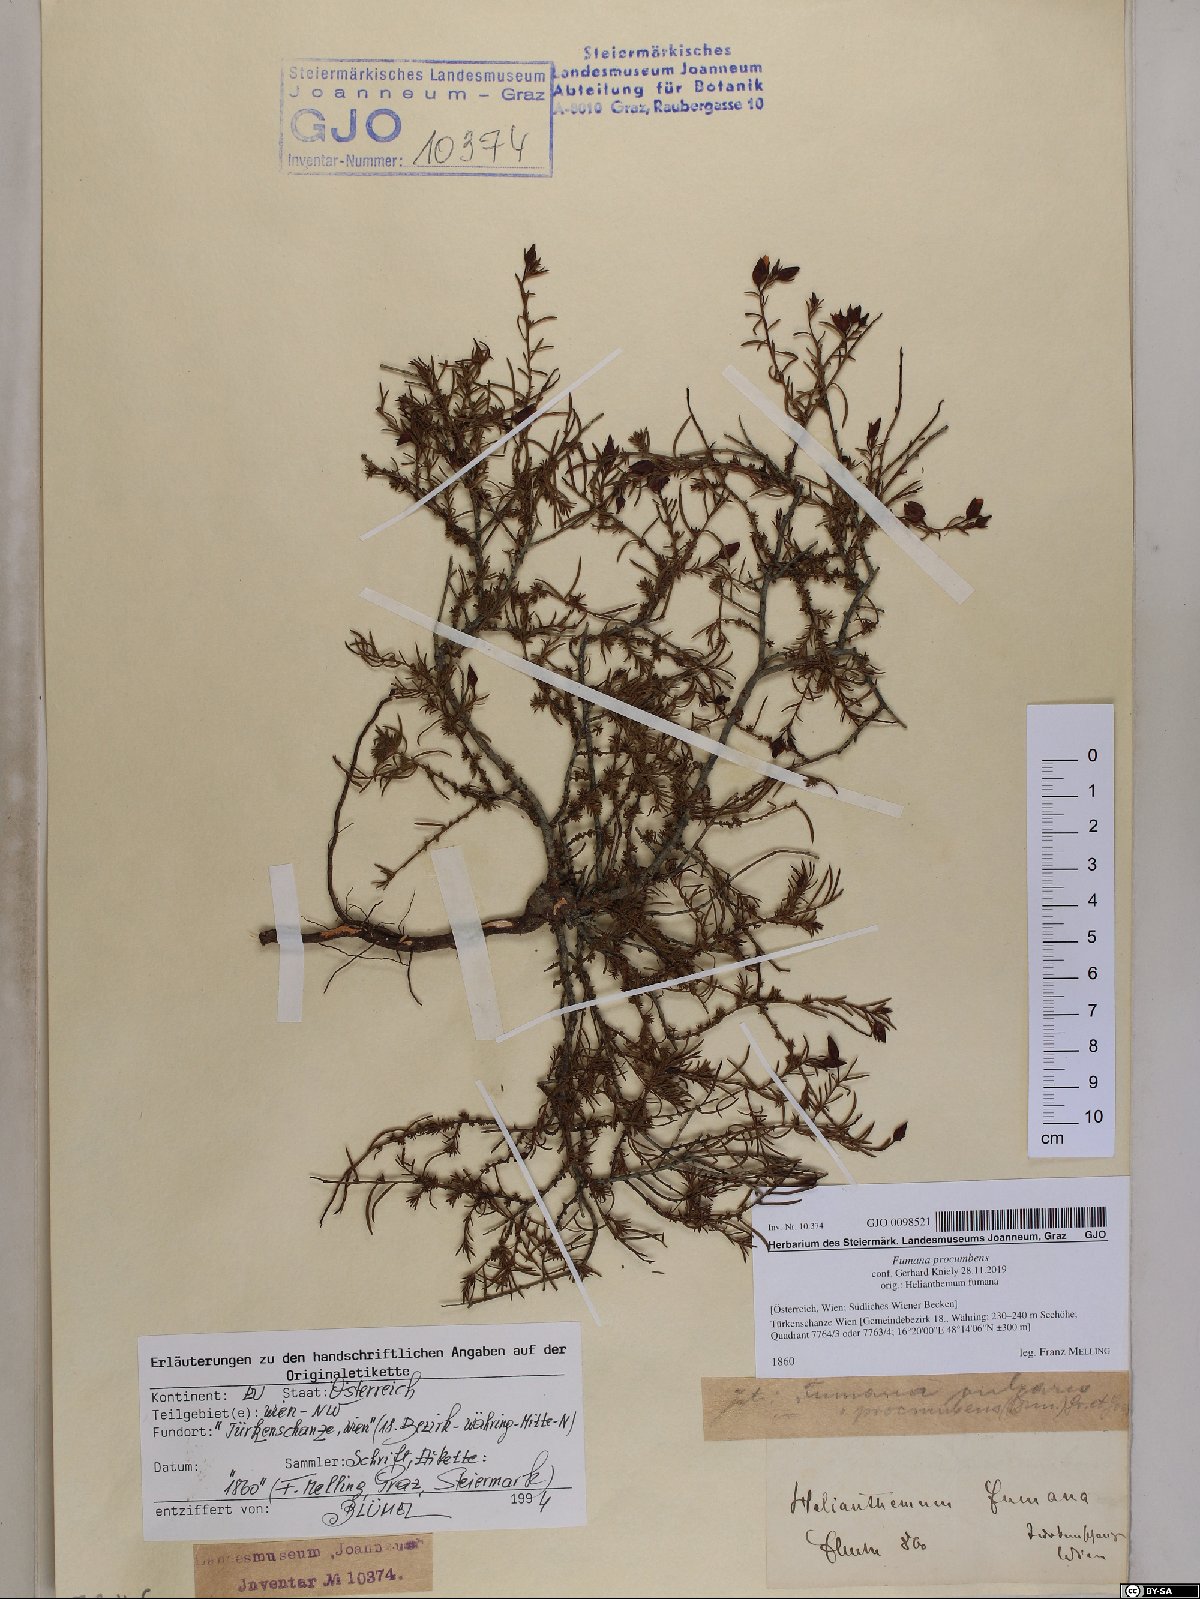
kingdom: Plantae
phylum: Tracheophyta
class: Magnoliopsida
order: Malvales
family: Cistaceae
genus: Fumana
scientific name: Fumana procumbens
